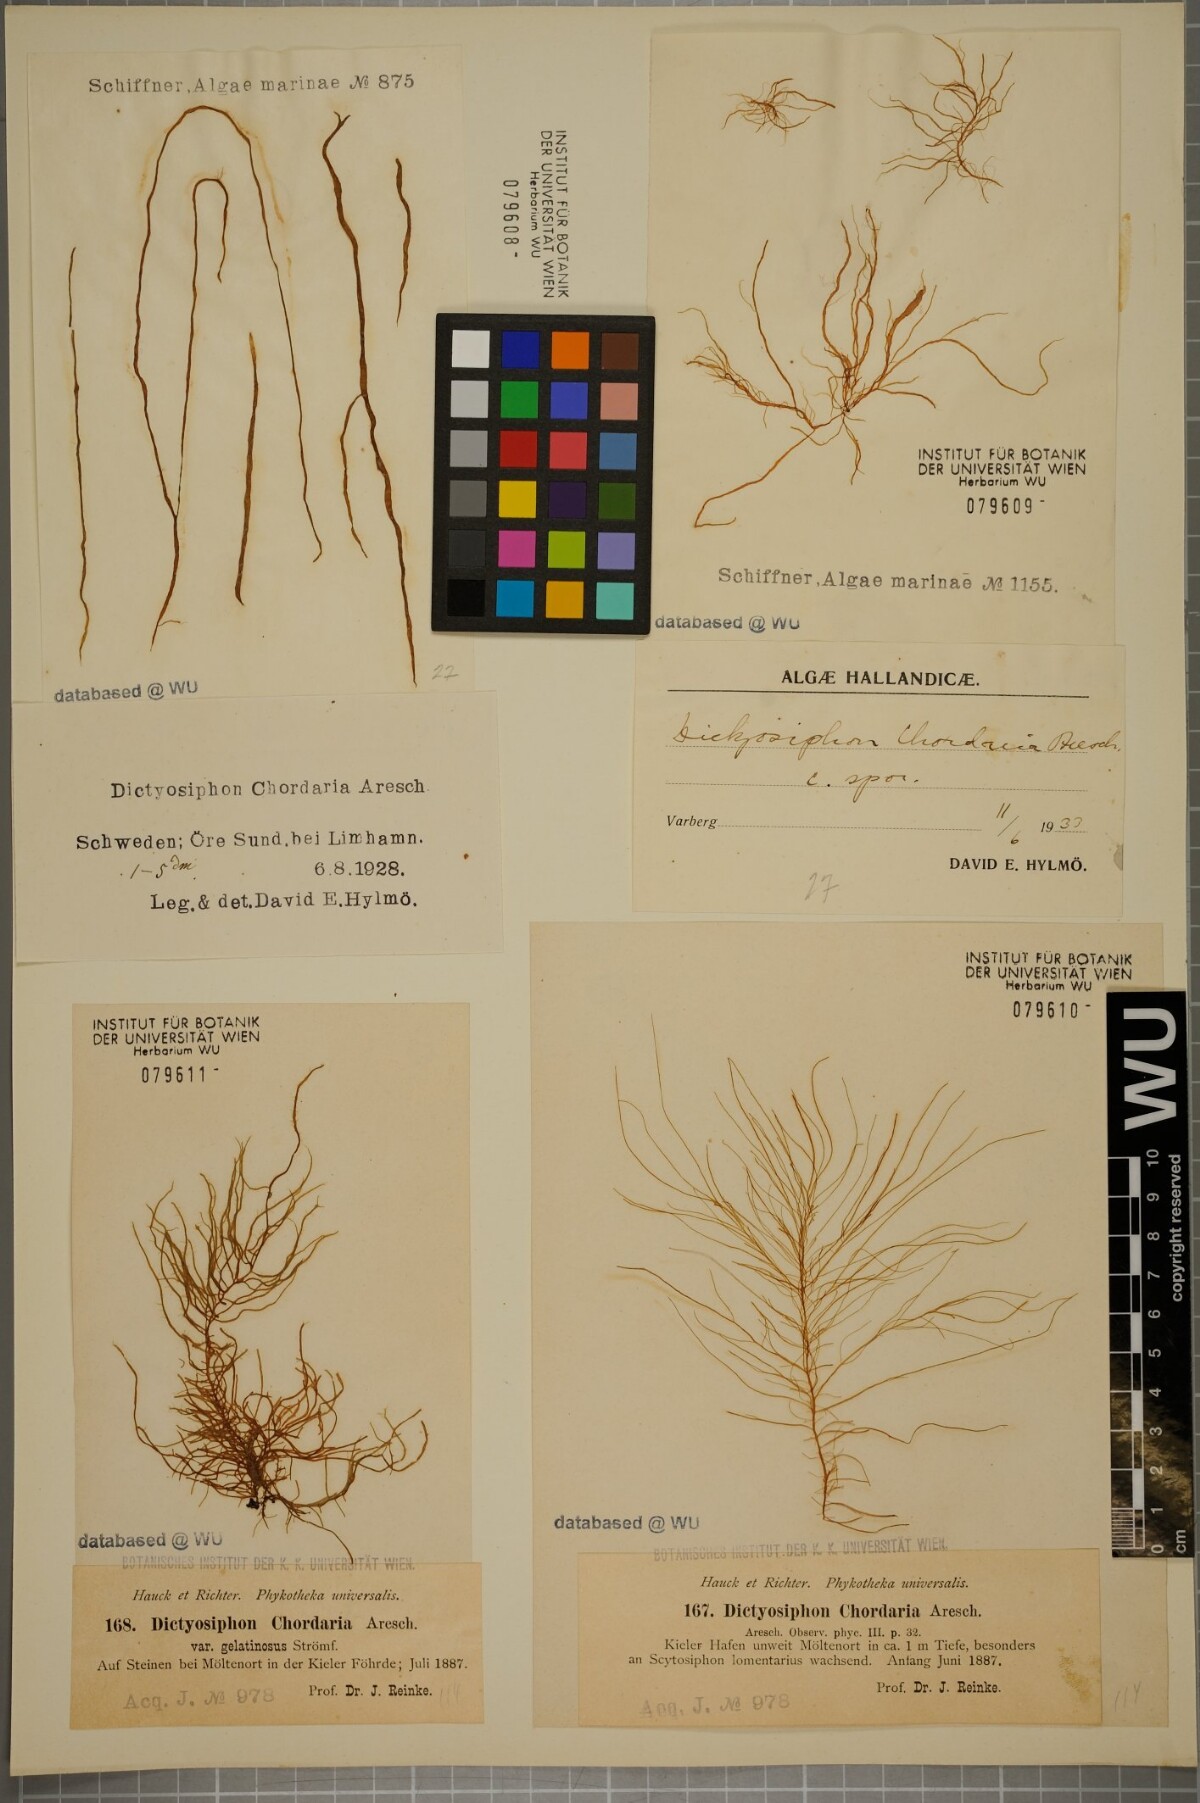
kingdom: Chromista
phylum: Ochrophyta
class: Phaeophyceae
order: Ectocarpales
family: Chordariaceae
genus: Dictyosiphon
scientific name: Dictyosiphon chordaria
